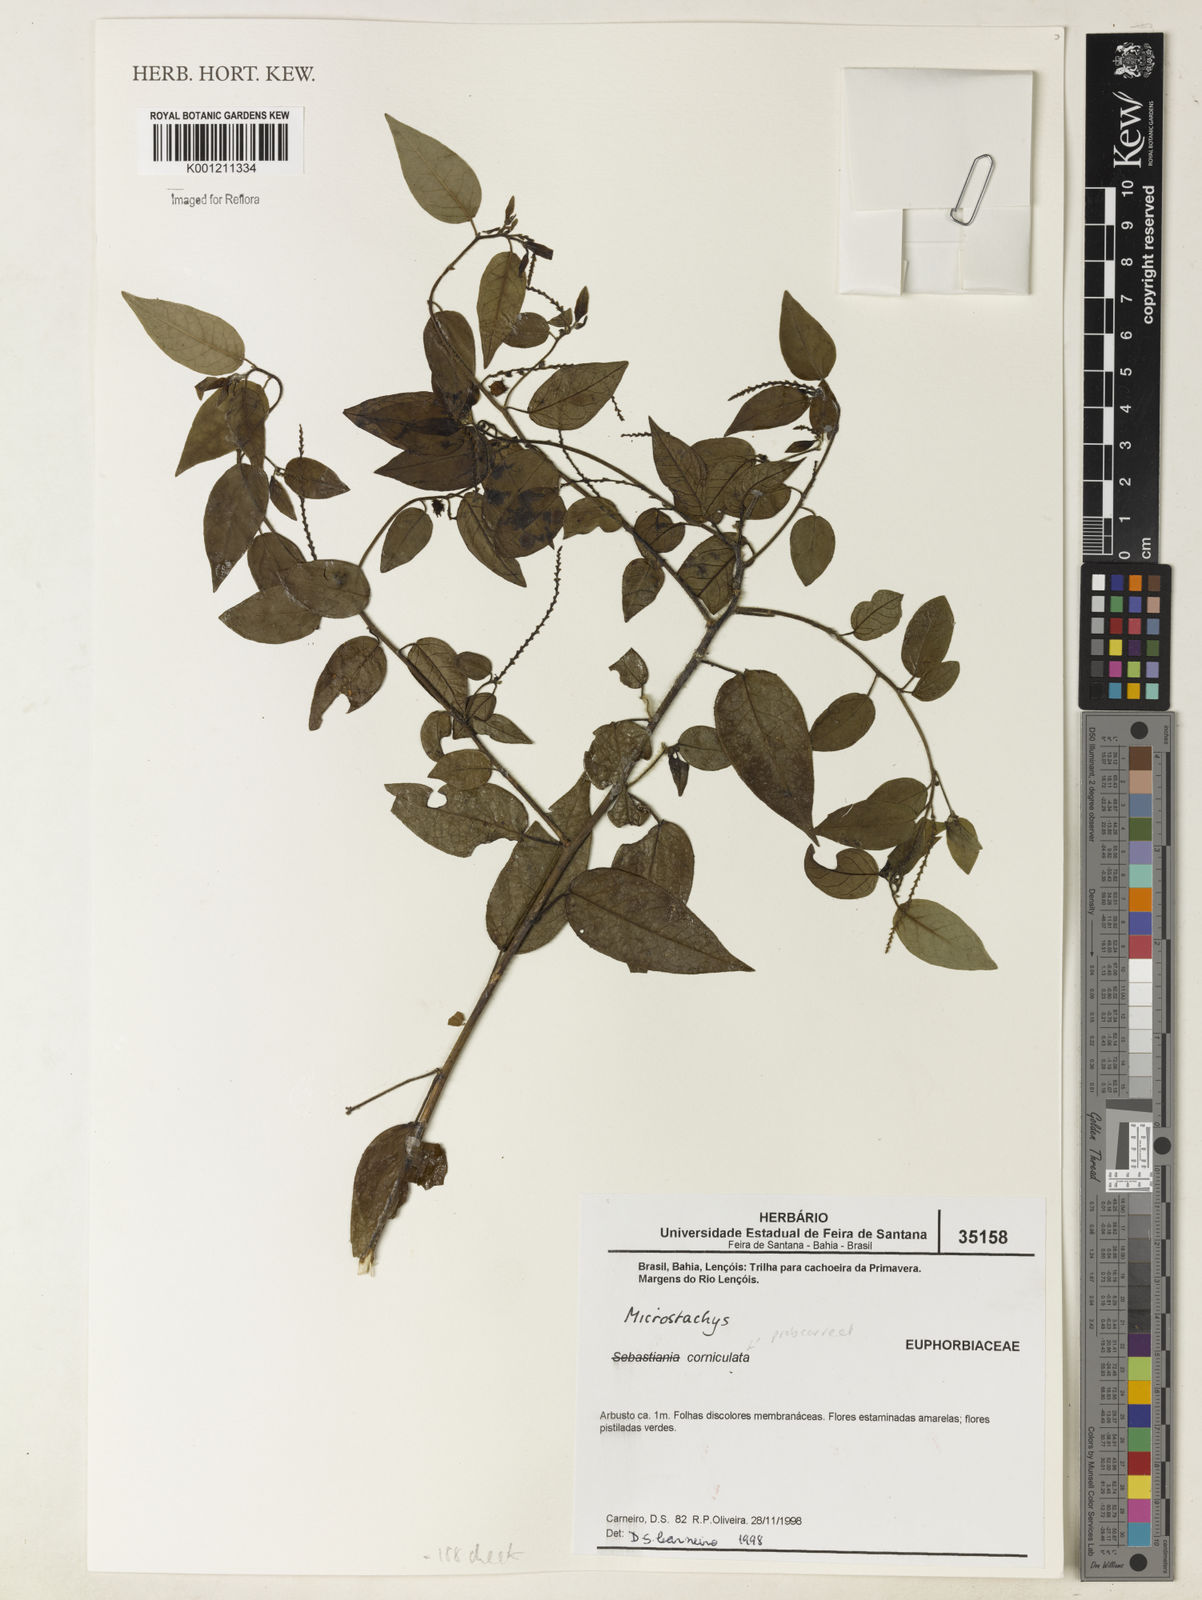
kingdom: Plantae
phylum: Tracheophyta
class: Magnoliopsida
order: Malpighiales
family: Euphorbiaceae
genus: Microstachys
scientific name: Microstachys corniculata
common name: Hato tejas
